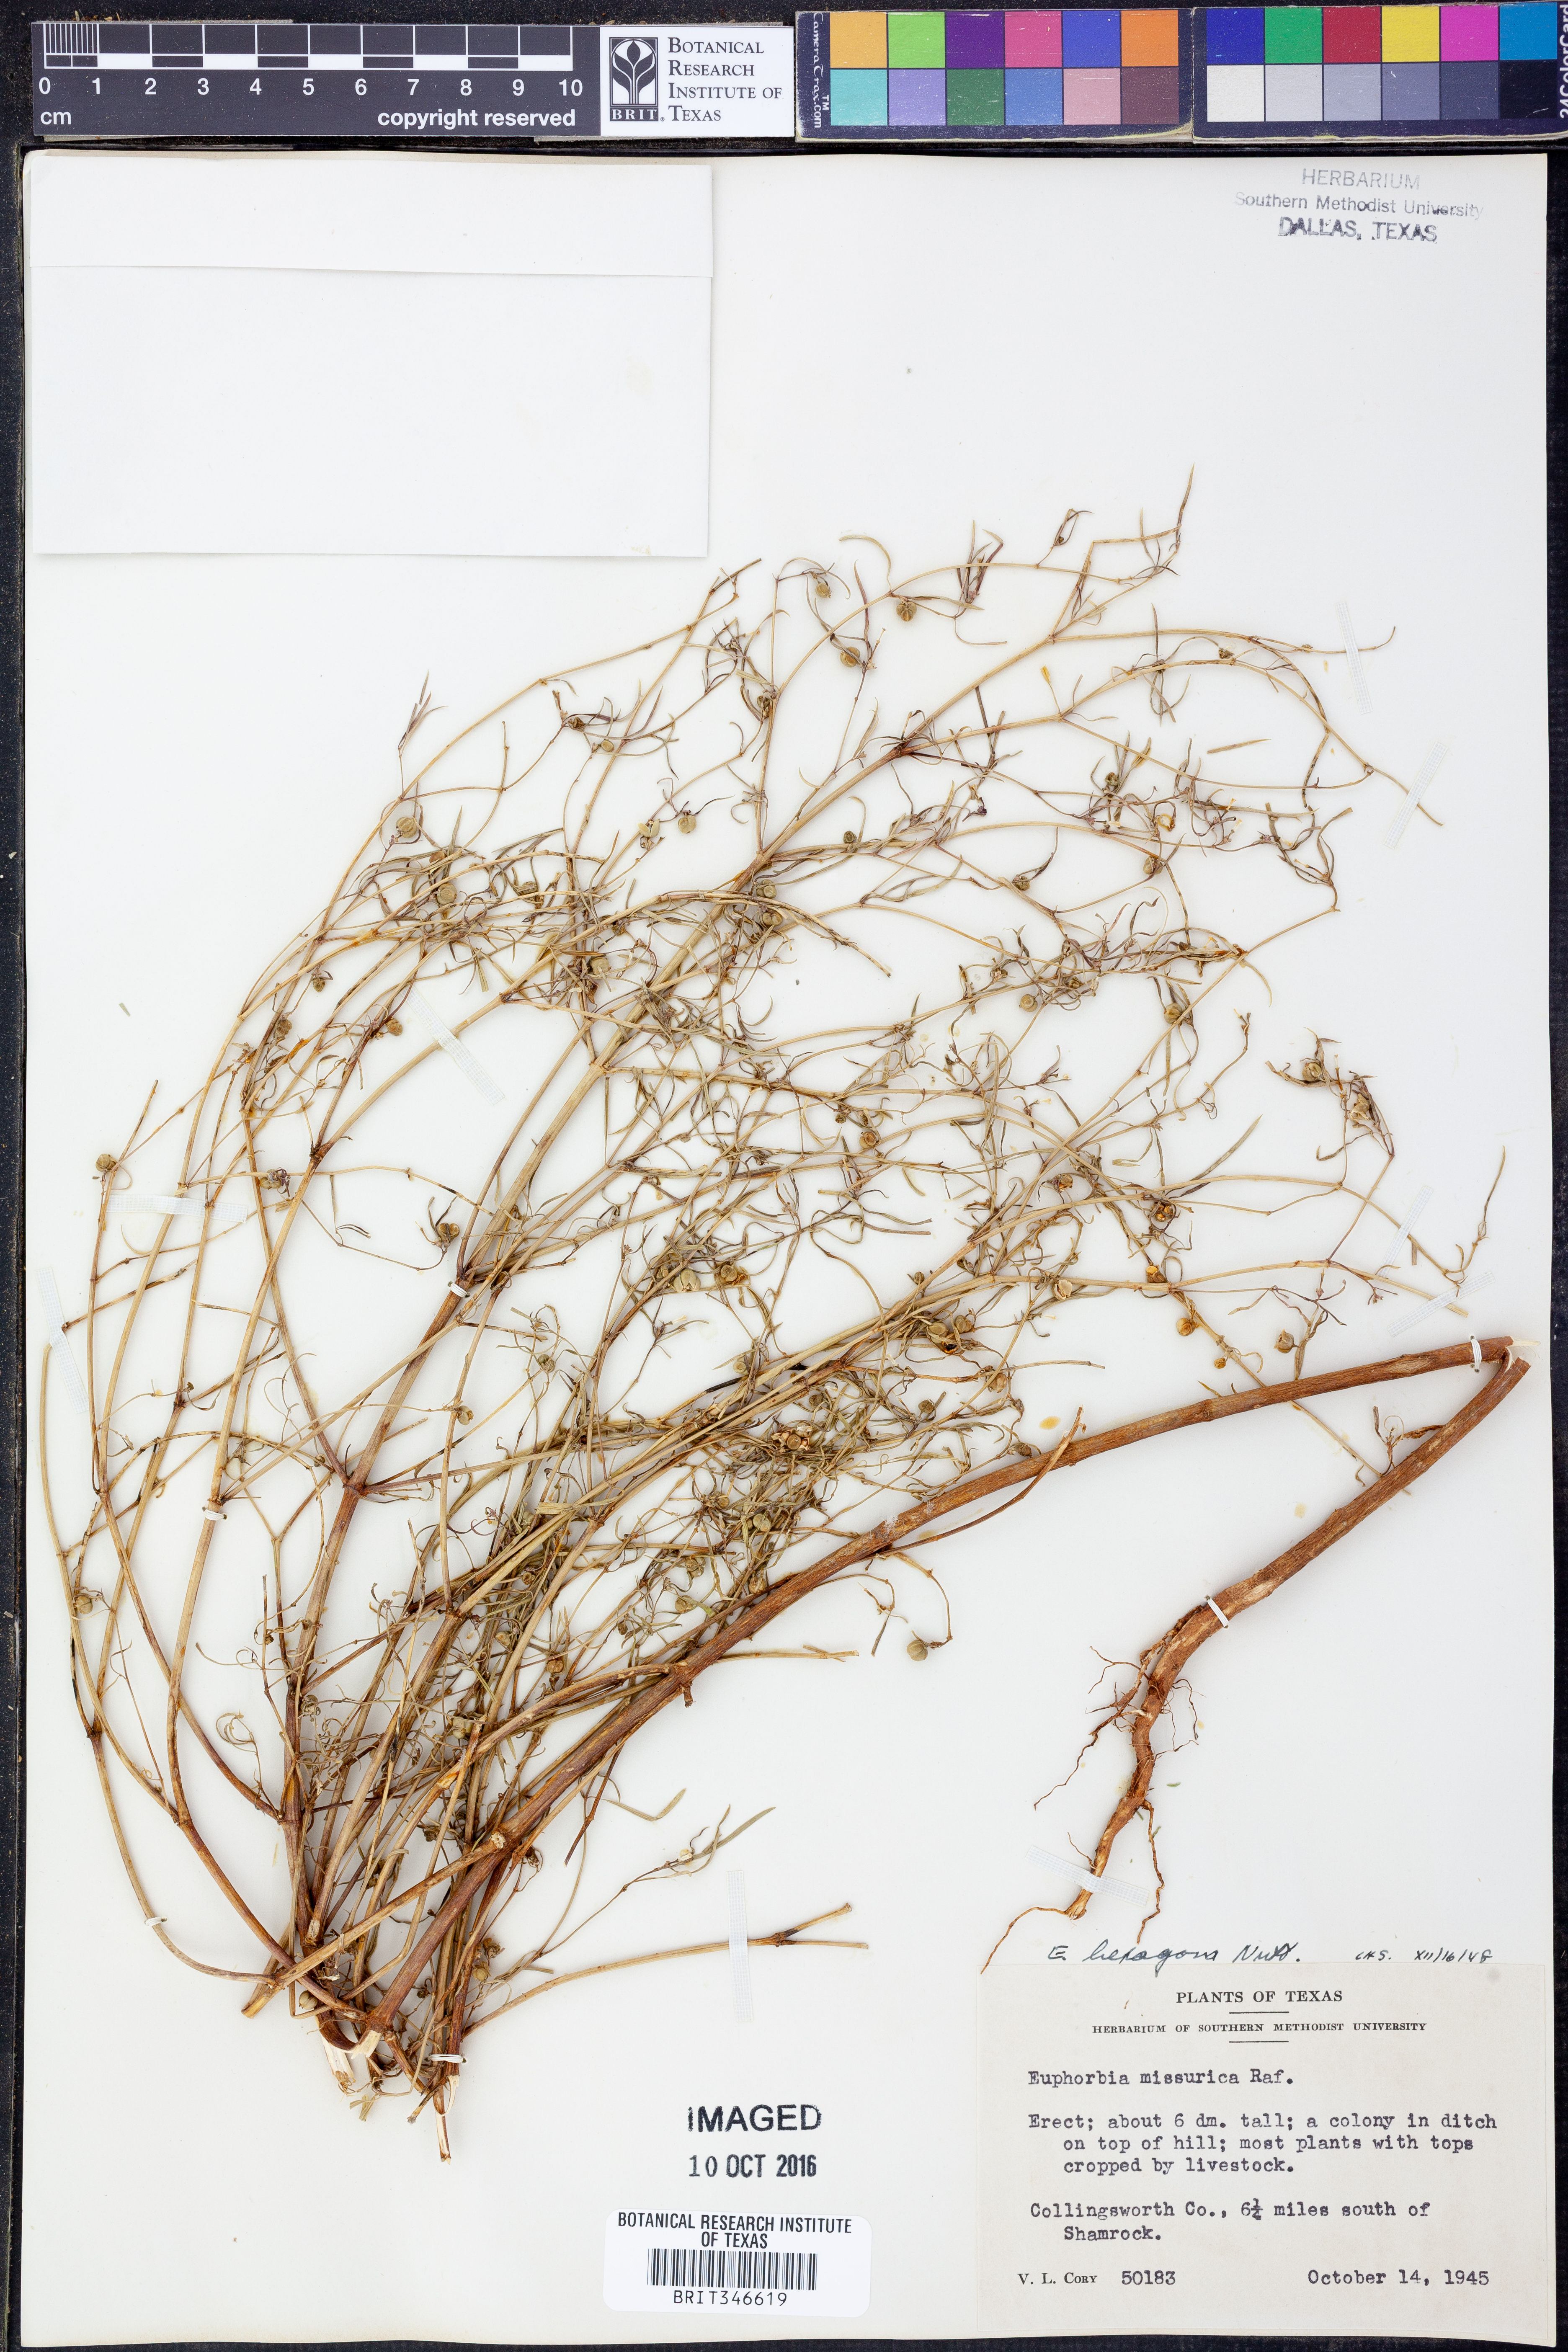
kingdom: Plantae
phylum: Tracheophyta
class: Magnoliopsida
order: Malpighiales
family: Euphorbiaceae
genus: Euphorbia
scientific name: Euphorbia hexagona
